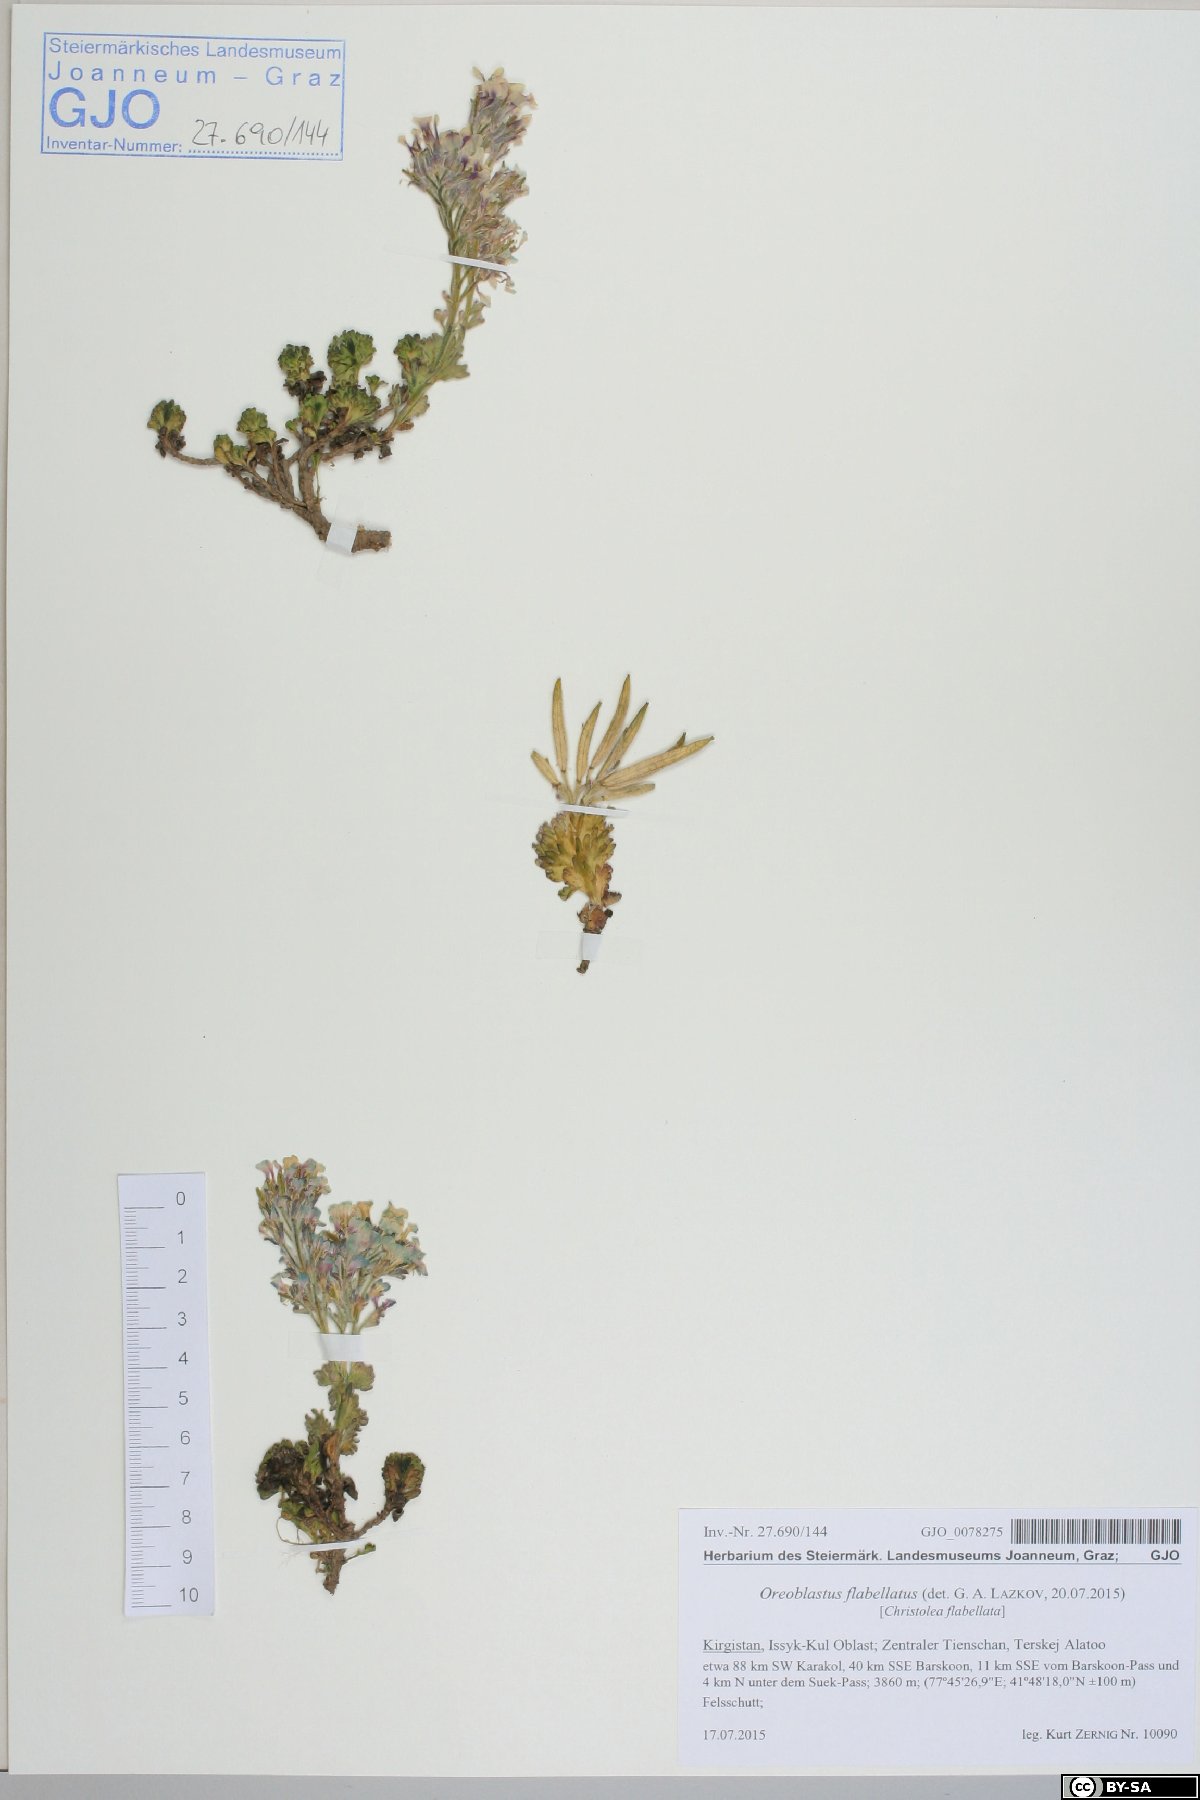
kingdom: Plantae
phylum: Tracheophyta
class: Magnoliopsida
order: Brassicales
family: Brassicaceae
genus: Solms-laubachia
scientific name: Solms-laubachia flabellata
